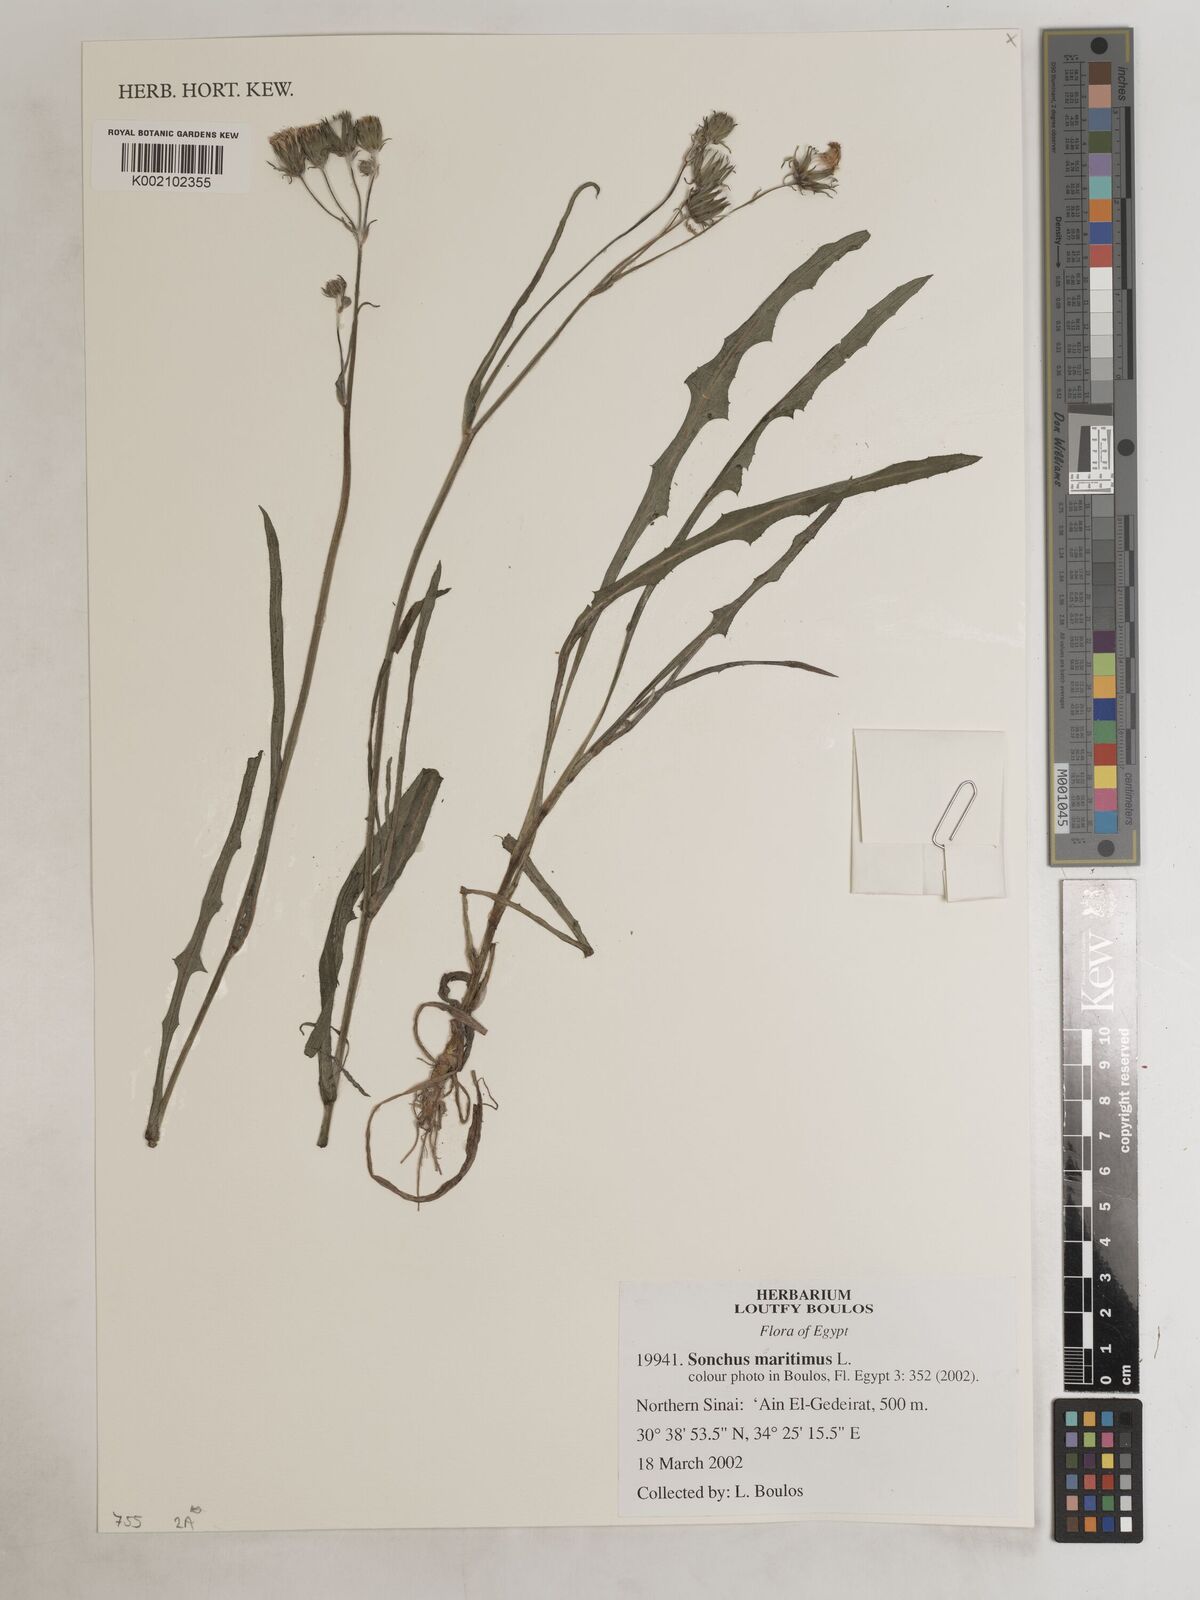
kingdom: Plantae
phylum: Tracheophyta
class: Magnoliopsida
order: Asterales
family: Asteraceae
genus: Sonchus
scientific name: Sonchus maritimus
